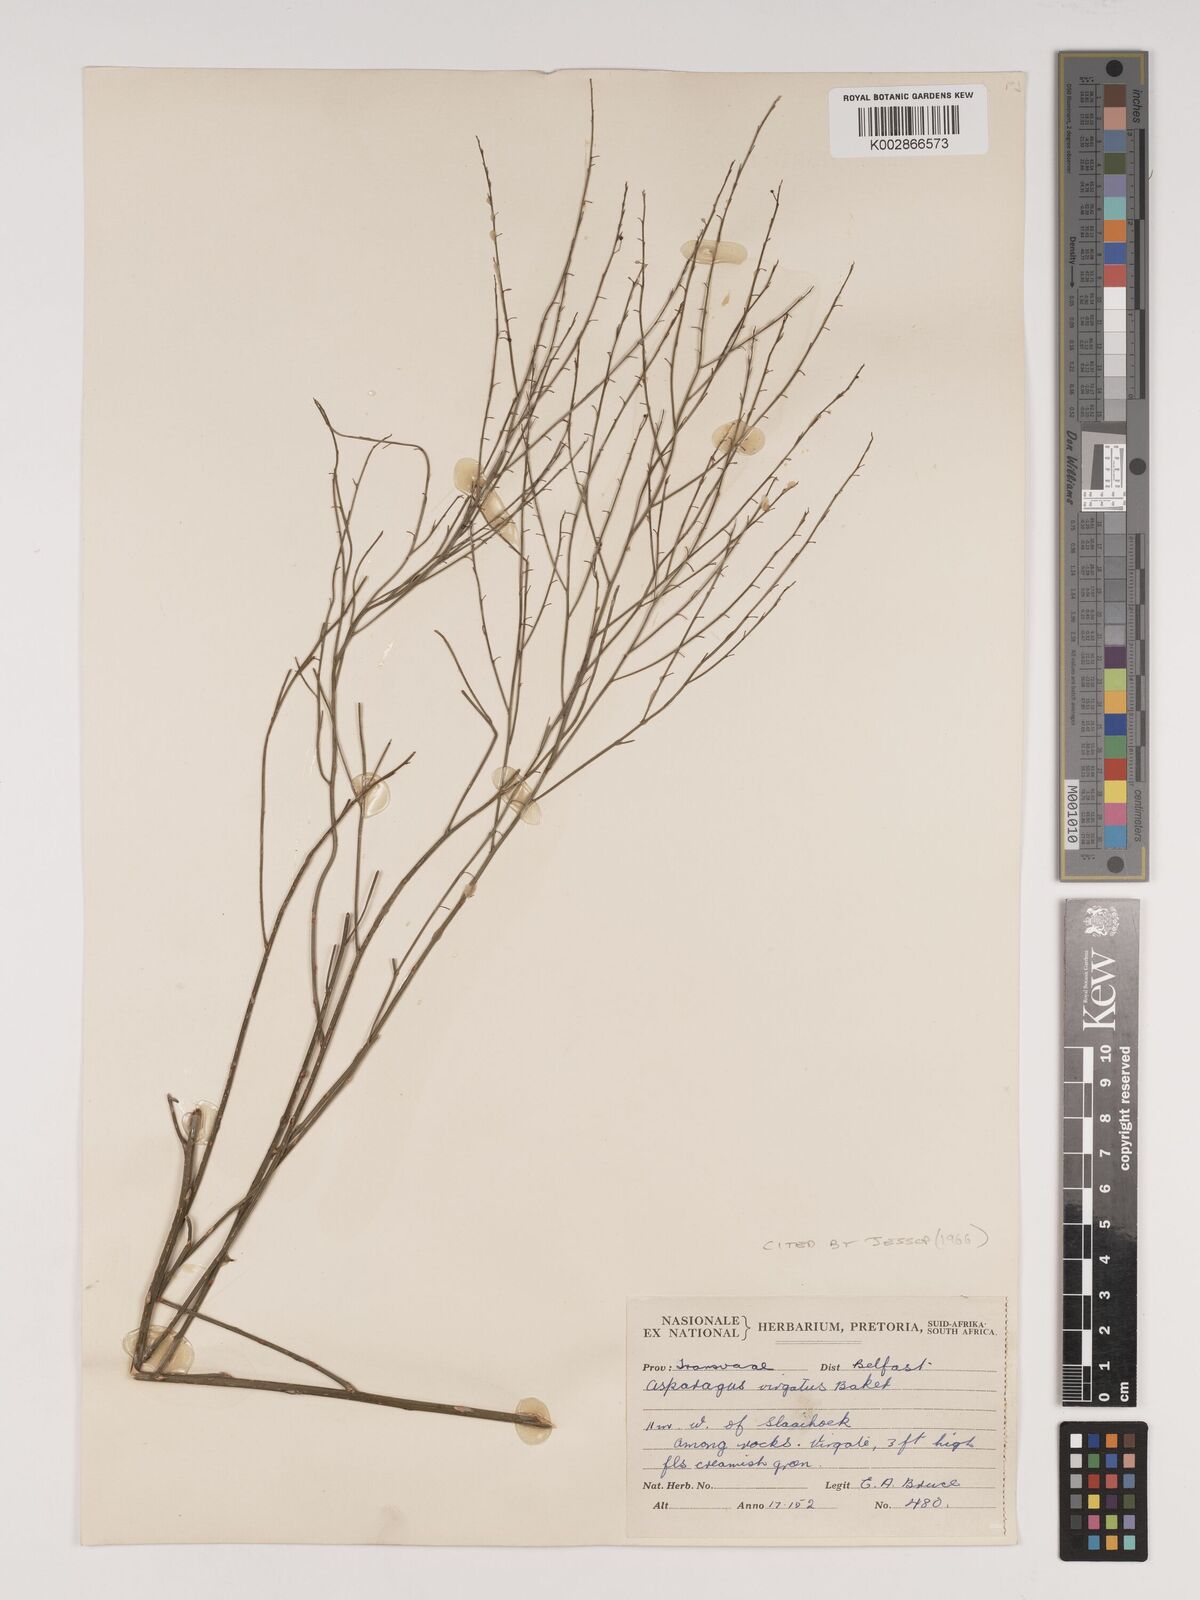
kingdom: Plantae
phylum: Tracheophyta
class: Liliopsida
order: Asparagales
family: Asparagaceae
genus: Asparagus
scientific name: Asparagus virgatus
